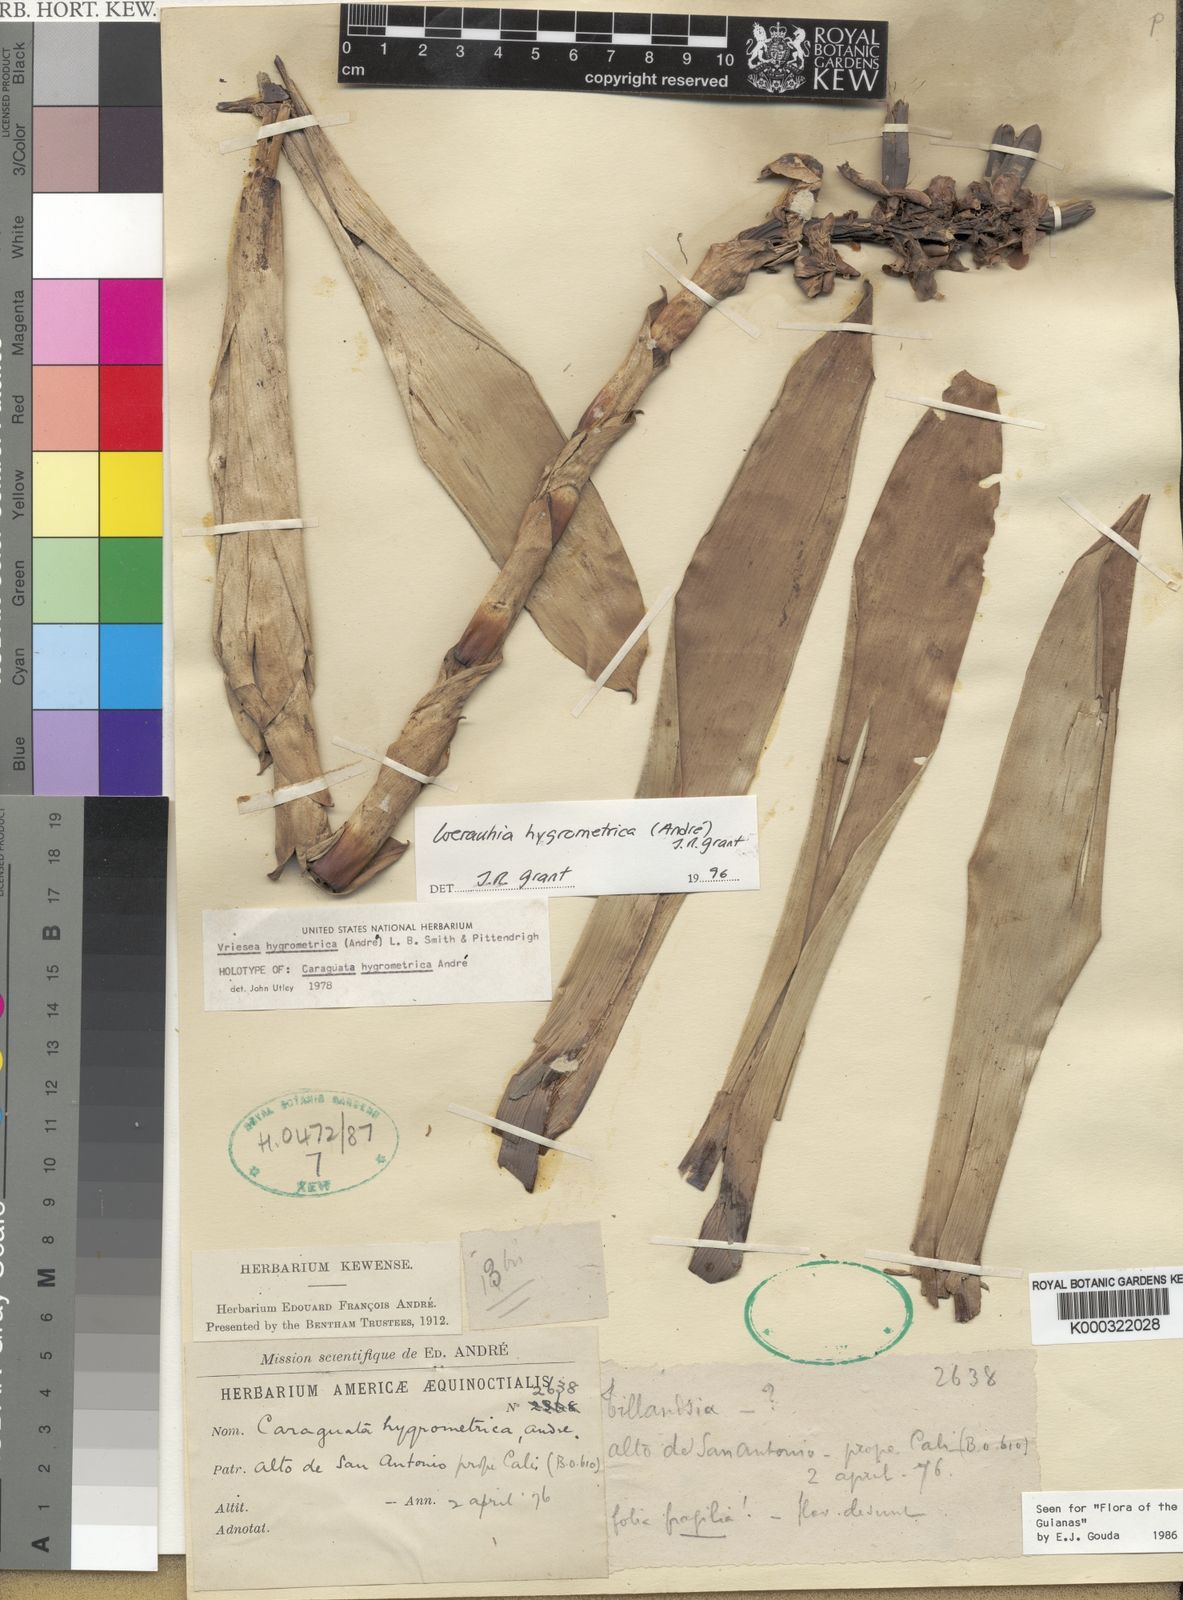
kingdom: Plantae
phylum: Tracheophyta
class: Liliopsida
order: Poales
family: Bromeliaceae
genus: Werauhia
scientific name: Werauhia hygrometrica
